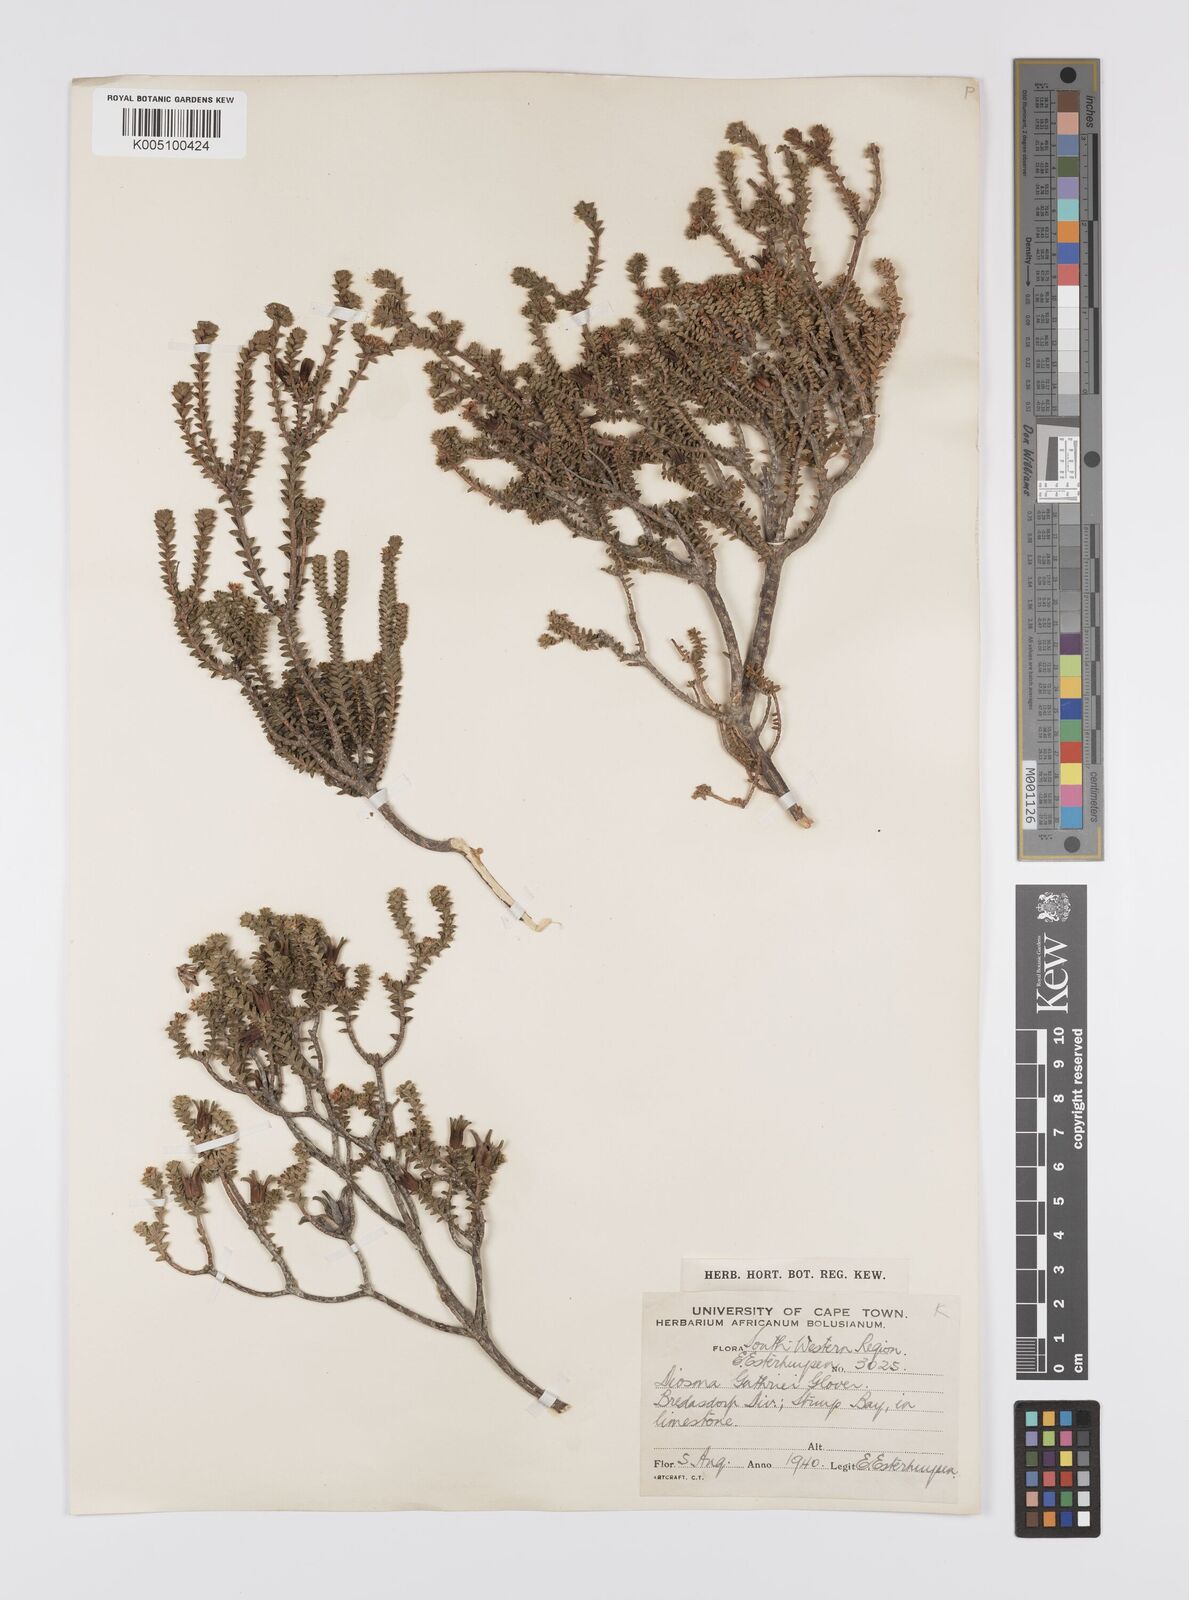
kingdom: Plantae
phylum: Tracheophyta
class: Magnoliopsida
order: Sapindales
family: Rutaceae
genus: Diosma
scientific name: Diosma guthriei
